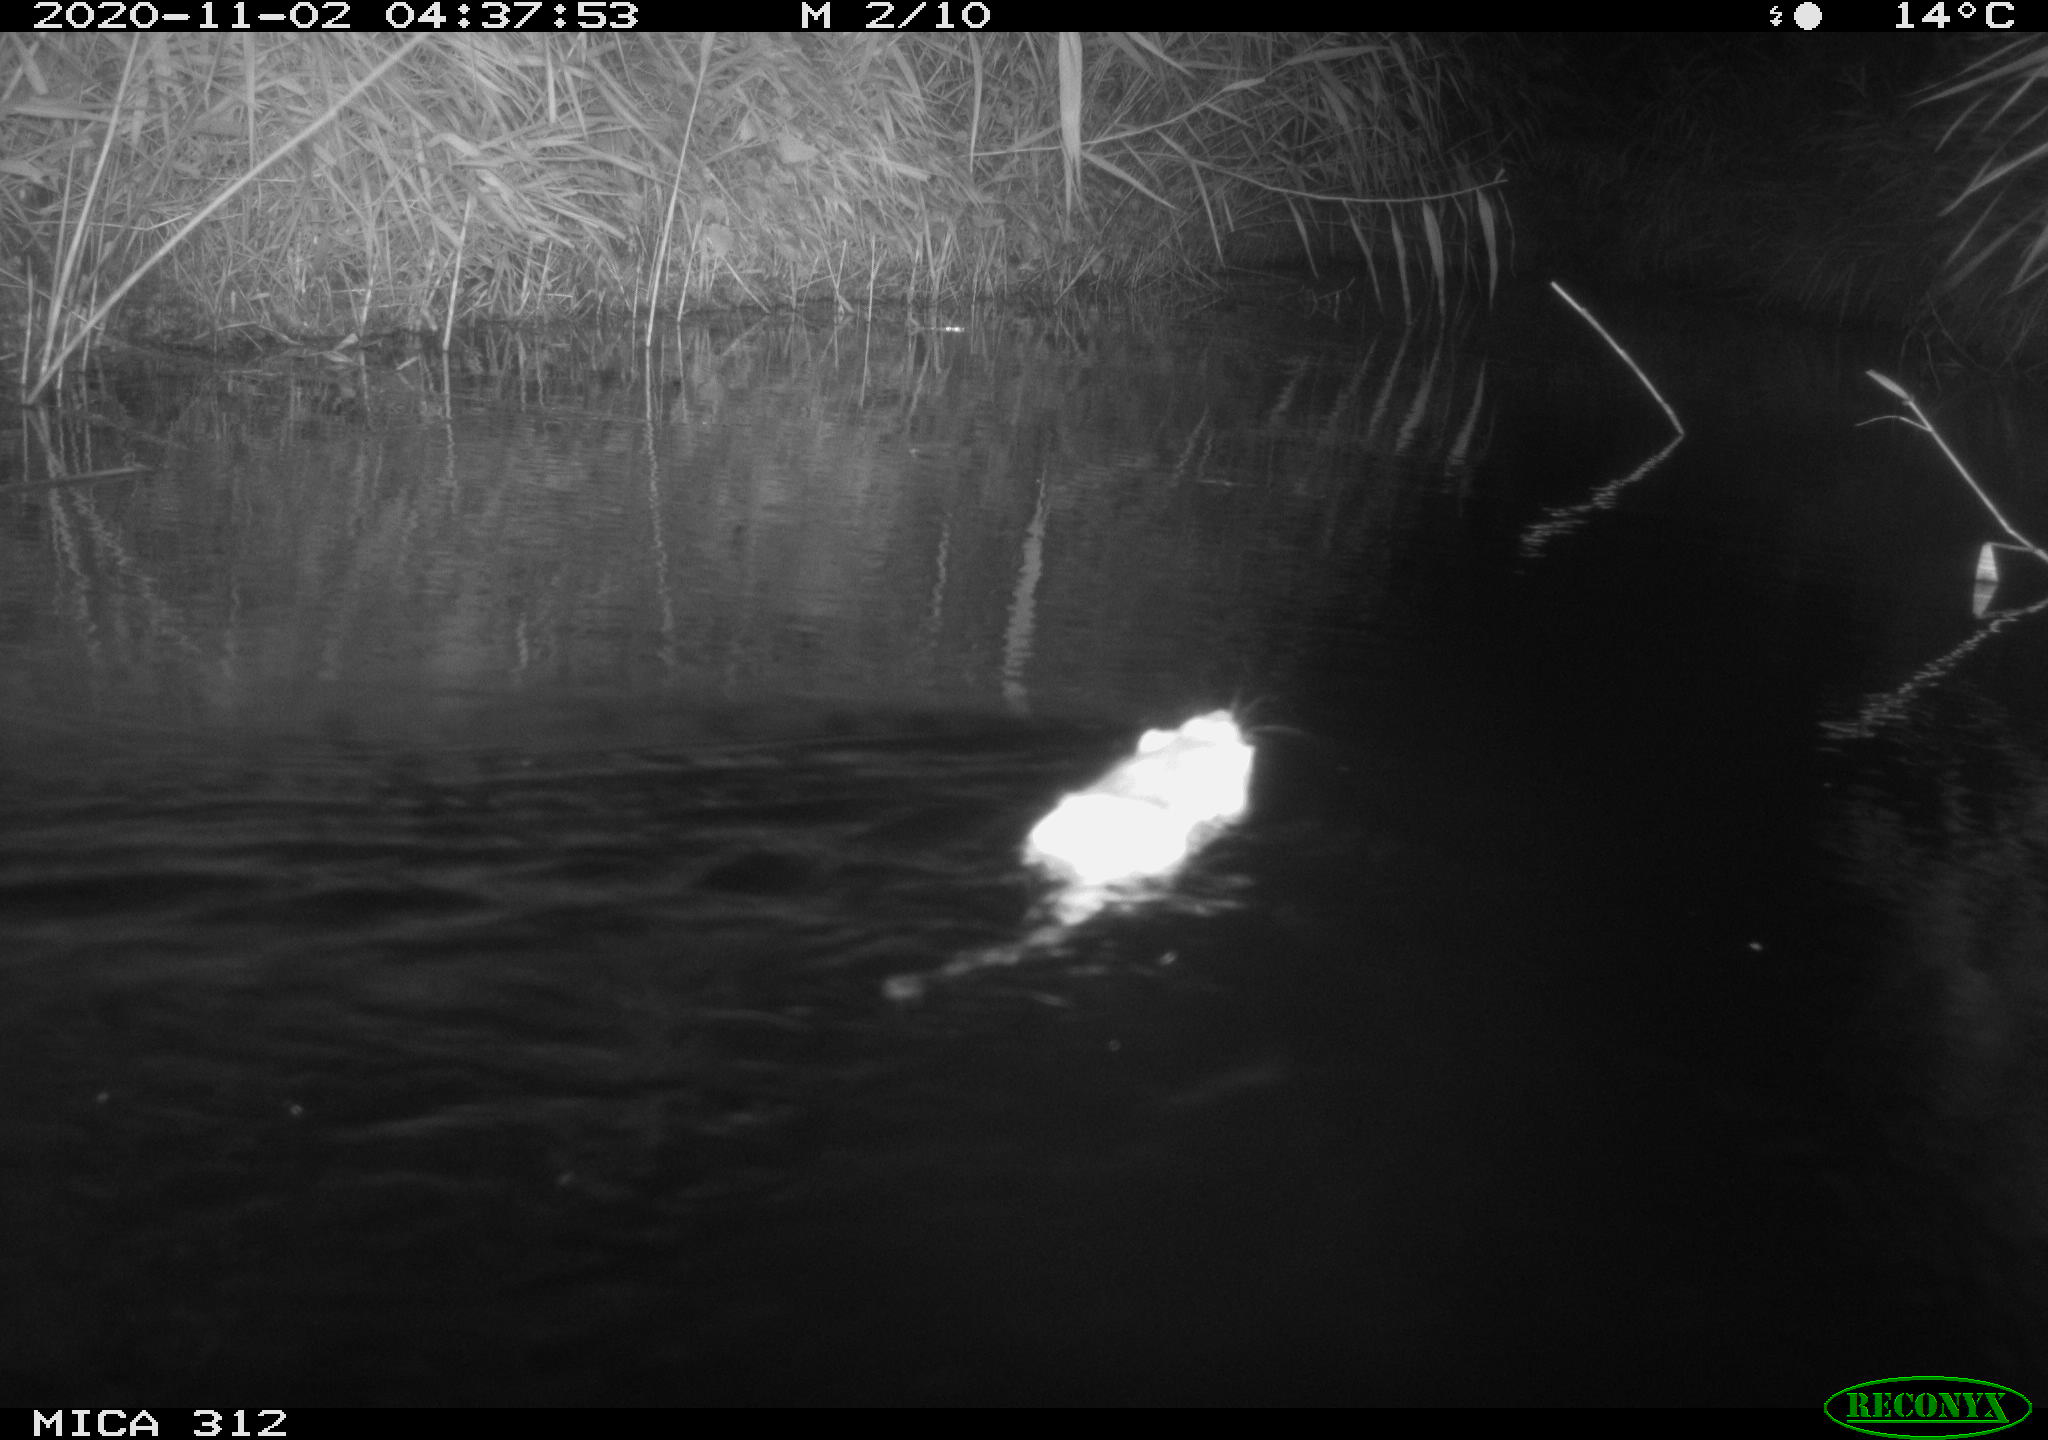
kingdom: Animalia
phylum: Chordata
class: Mammalia
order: Rodentia
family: Cricetidae
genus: Ondatra
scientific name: Ondatra zibethicus
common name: Muskrat
